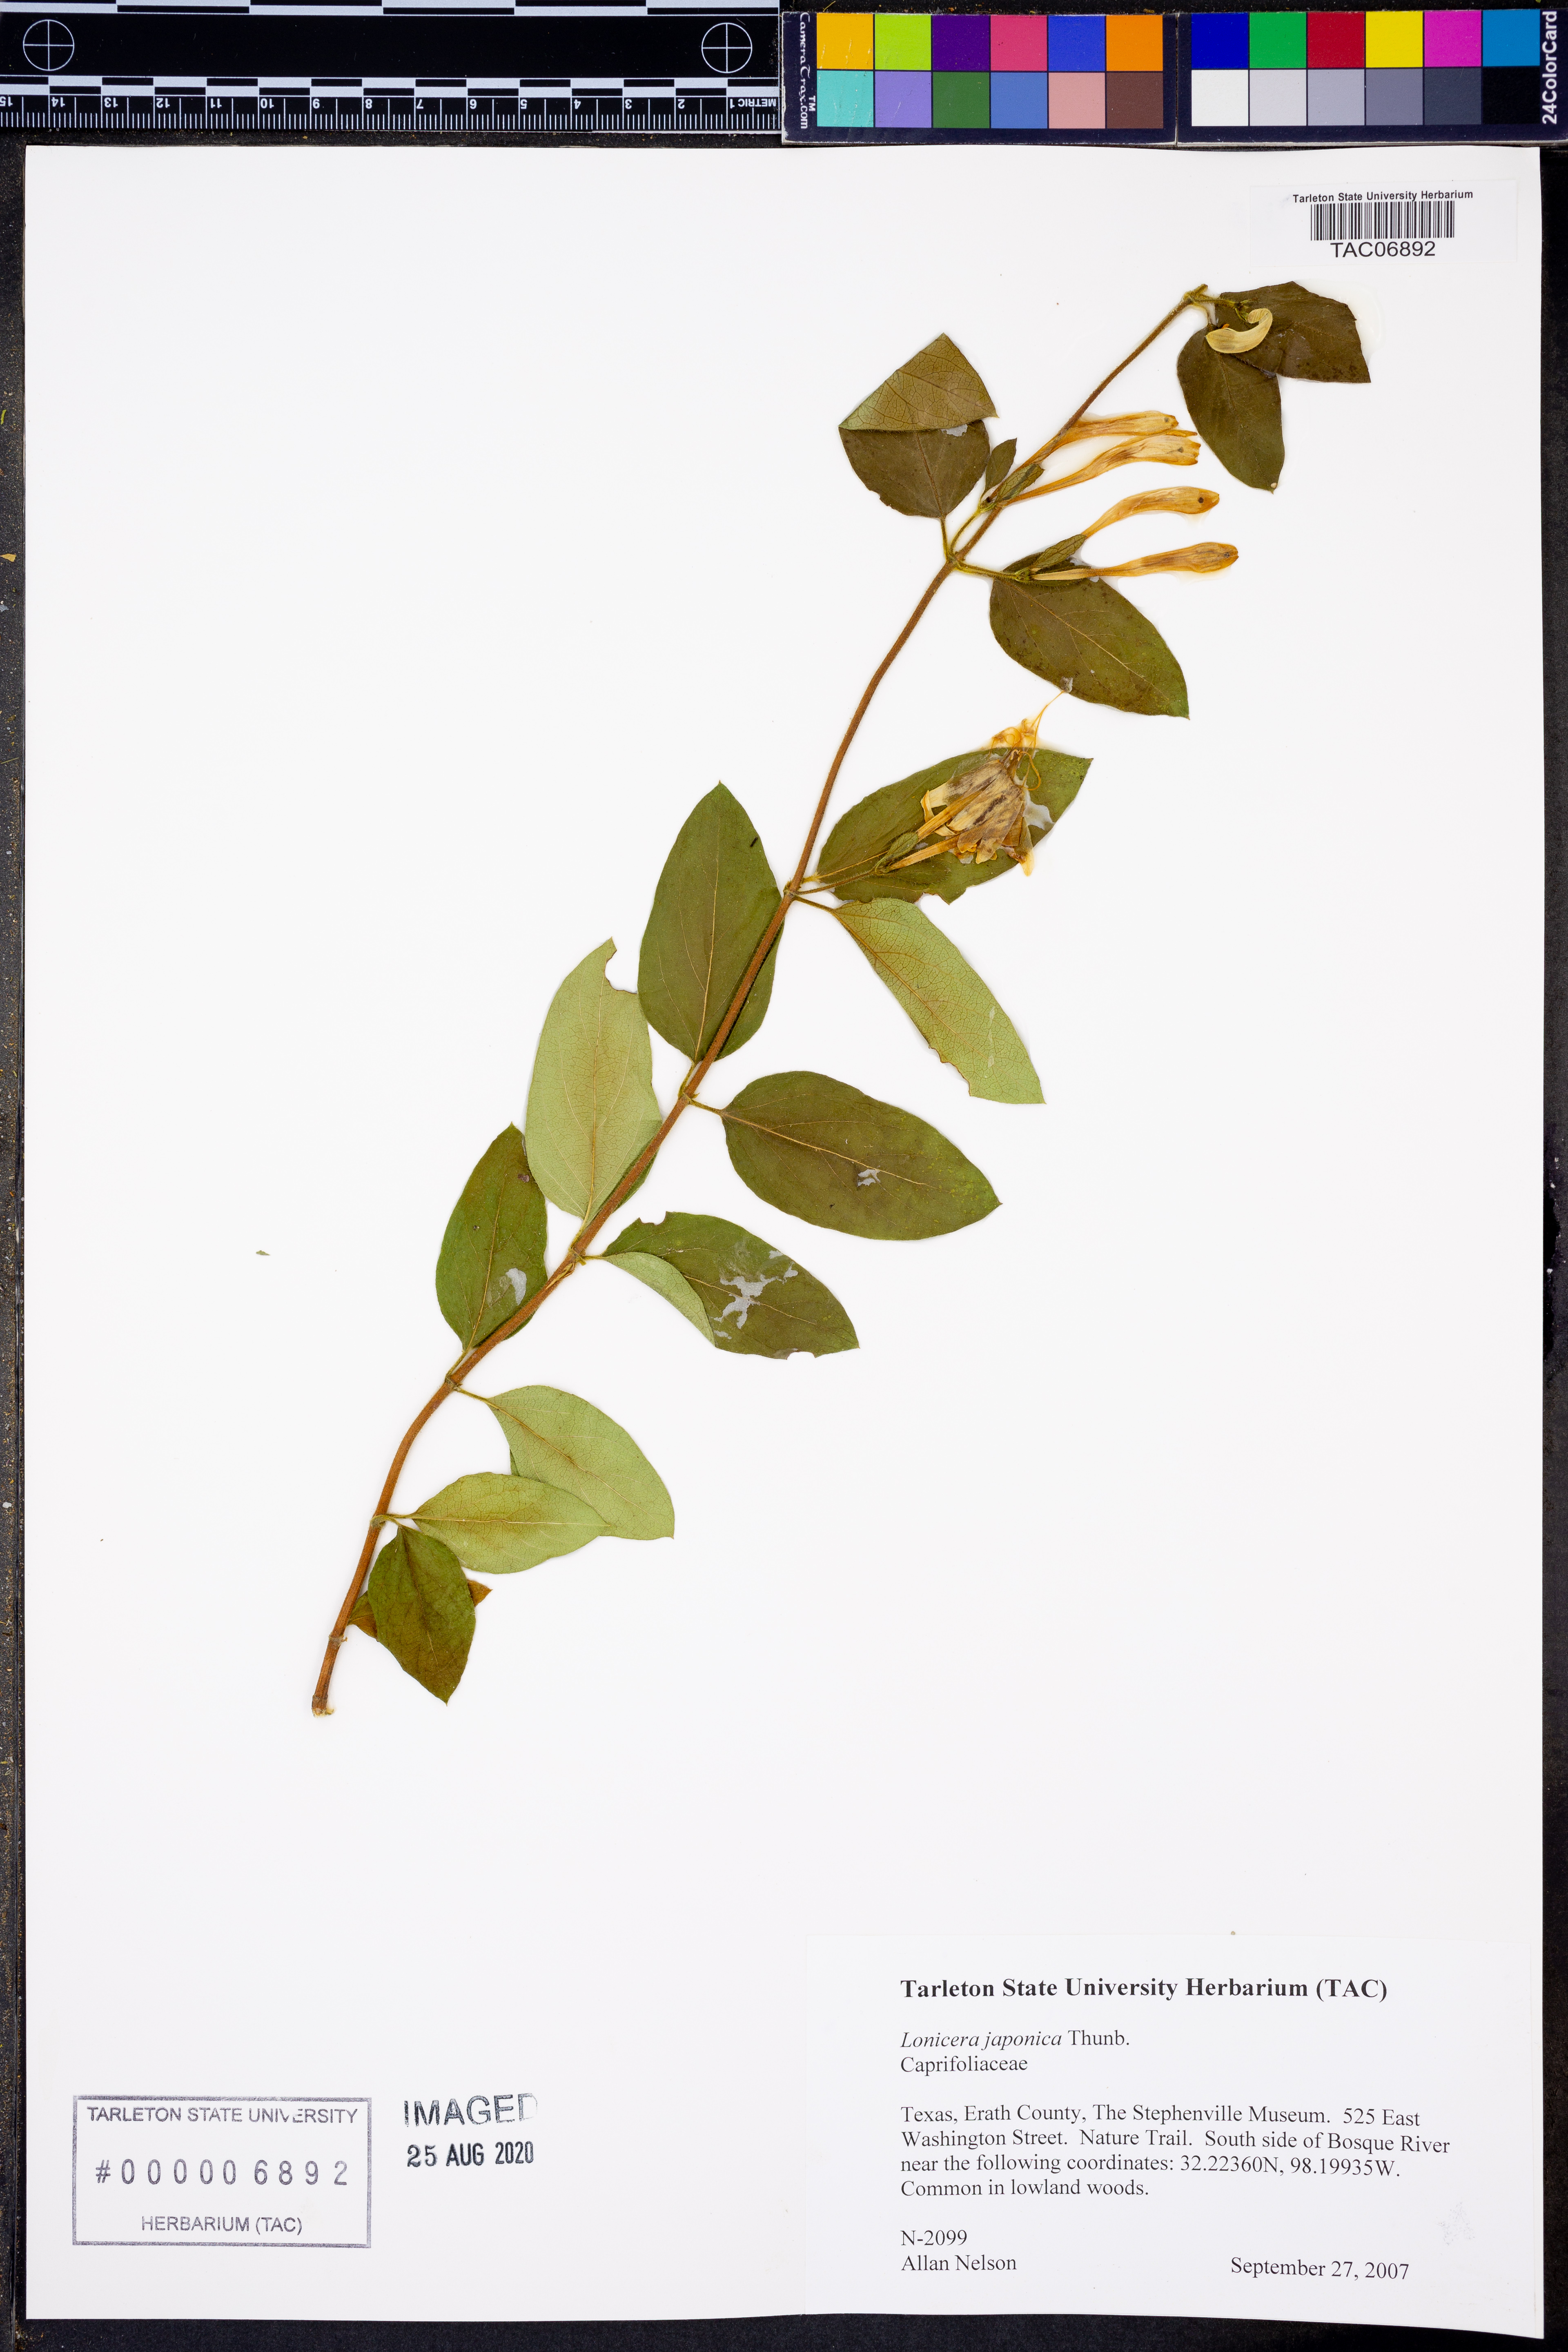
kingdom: Plantae
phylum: Tracheophyta
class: Magnoliopsida
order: Dipsacales
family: Caprifoliaceae
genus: Lonicera
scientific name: Lonicera japonica
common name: Japanese honeysuckle
